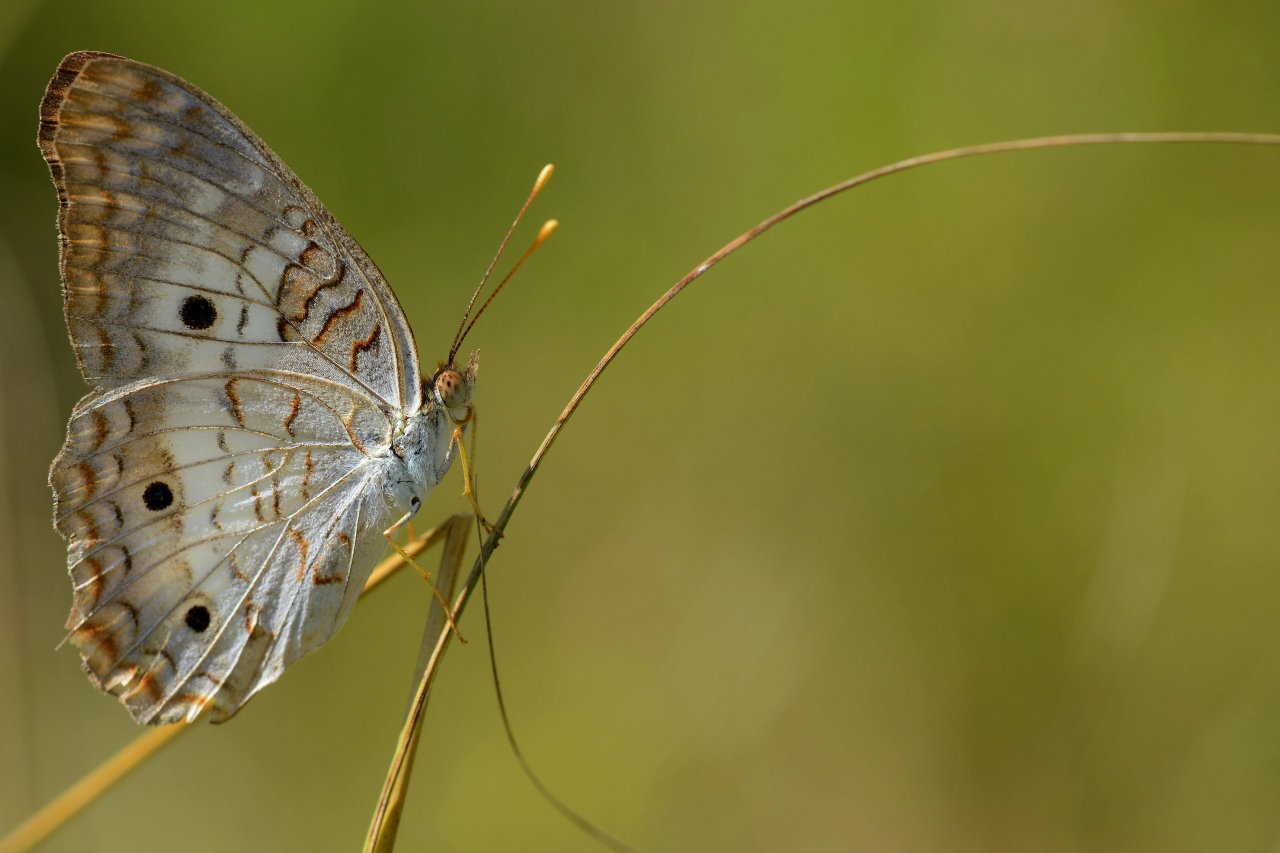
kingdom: Animalia
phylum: Arthropoda
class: Insecta
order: Lepidoptera
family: Nymphalidae
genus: Anartia
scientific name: Anartia jatrophae
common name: White Peacock
